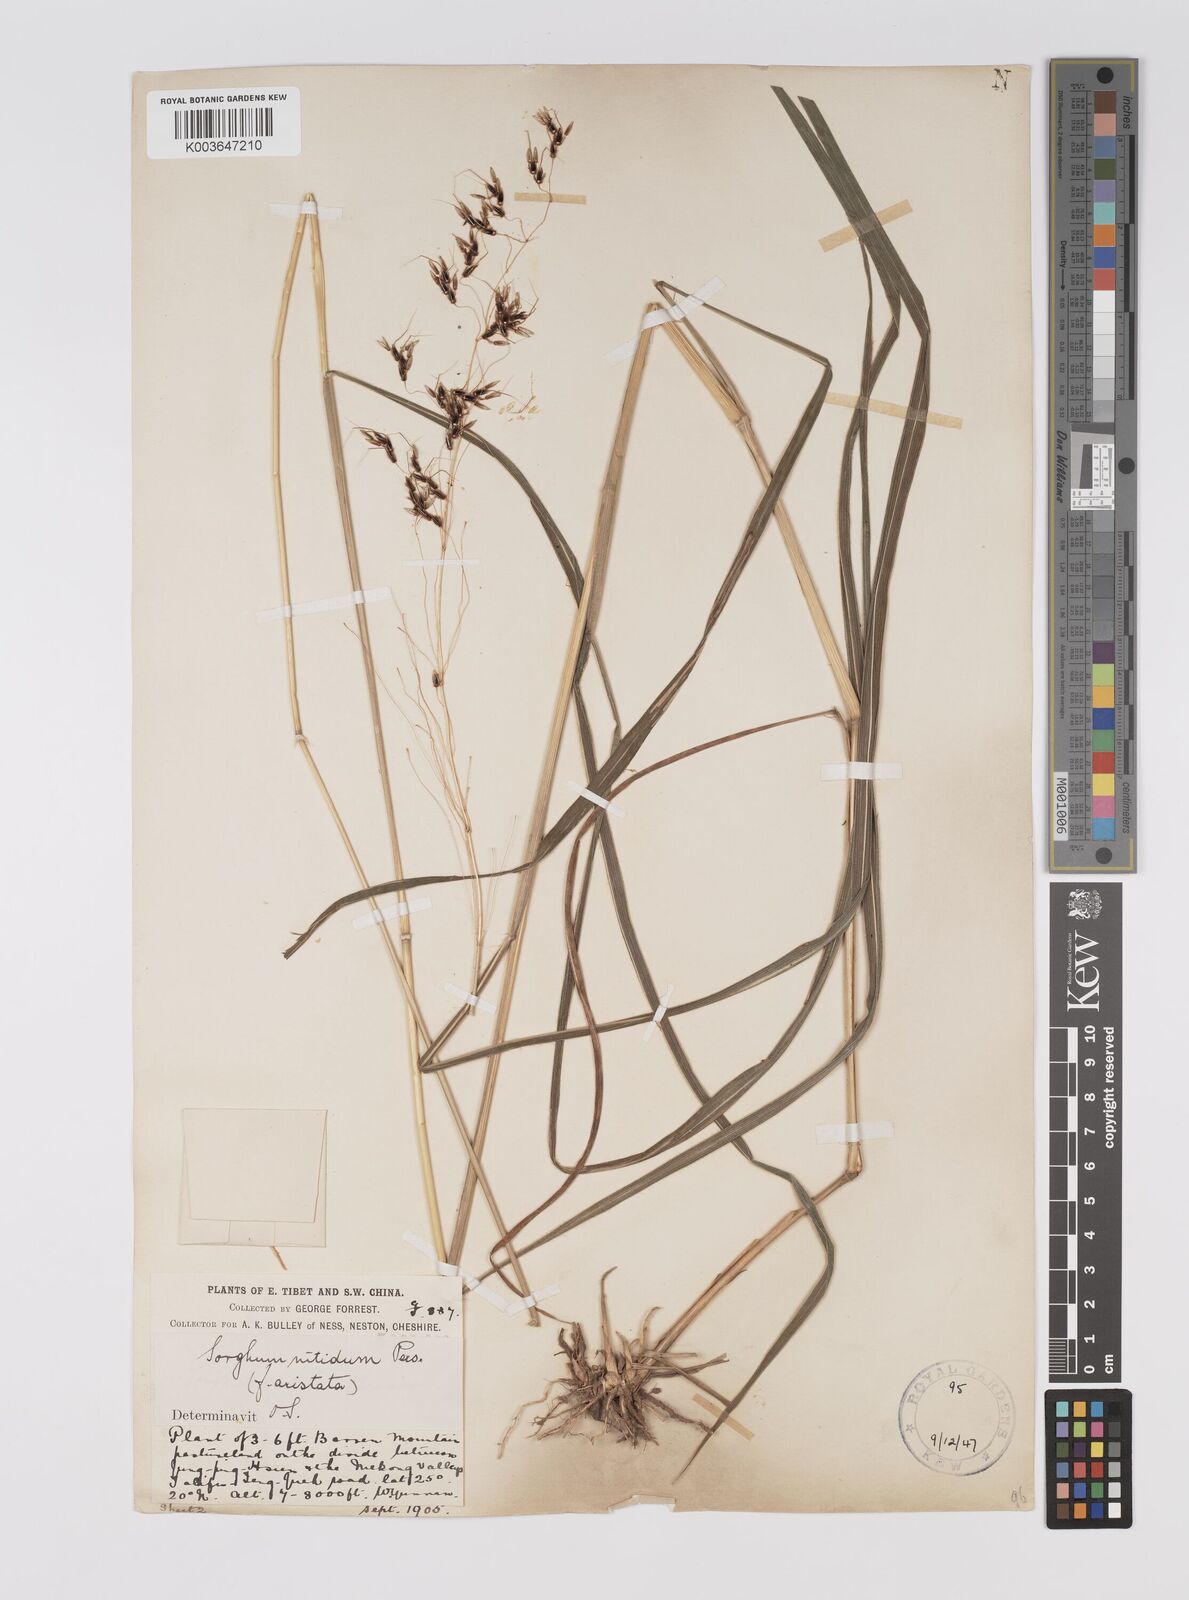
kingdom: Plantae
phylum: Tracheophyta
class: Liliopsida
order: Poales
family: Poaceae
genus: Sorghum
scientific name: Sorghum nitidum
